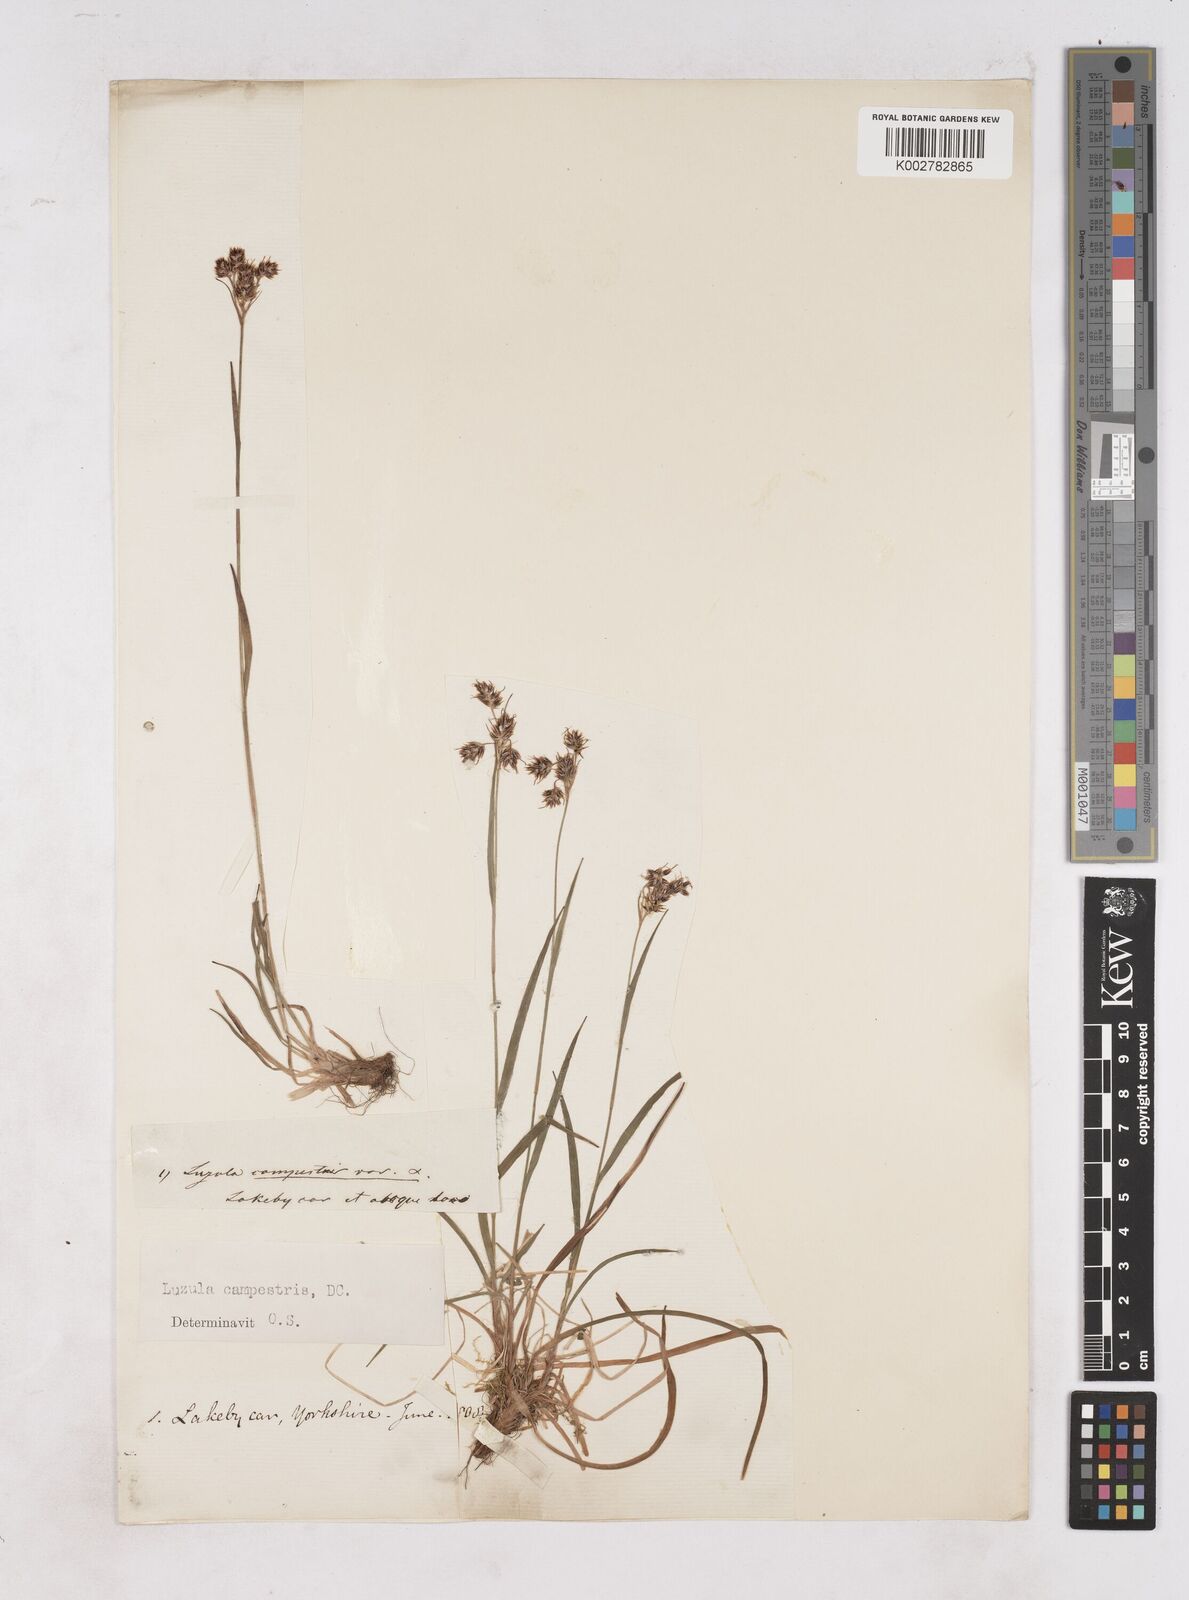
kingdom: Plantae
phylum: Tracheophyta
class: Liliopsida
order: Poales
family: Juncaceae
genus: Luzula
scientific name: Luzula campestris
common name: Field wood-rush
